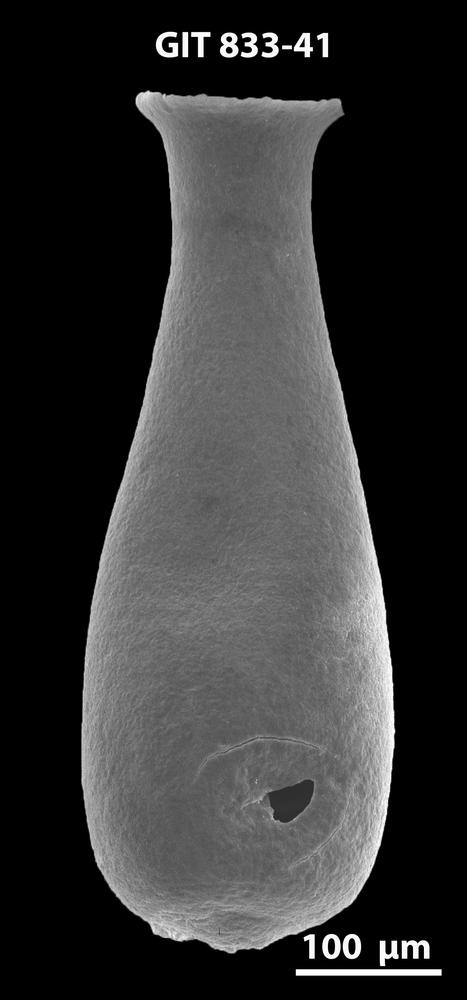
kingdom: Animalia
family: Lagenochitinidae
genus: Lagenochitina
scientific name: Lagenochitina megaesthonica
